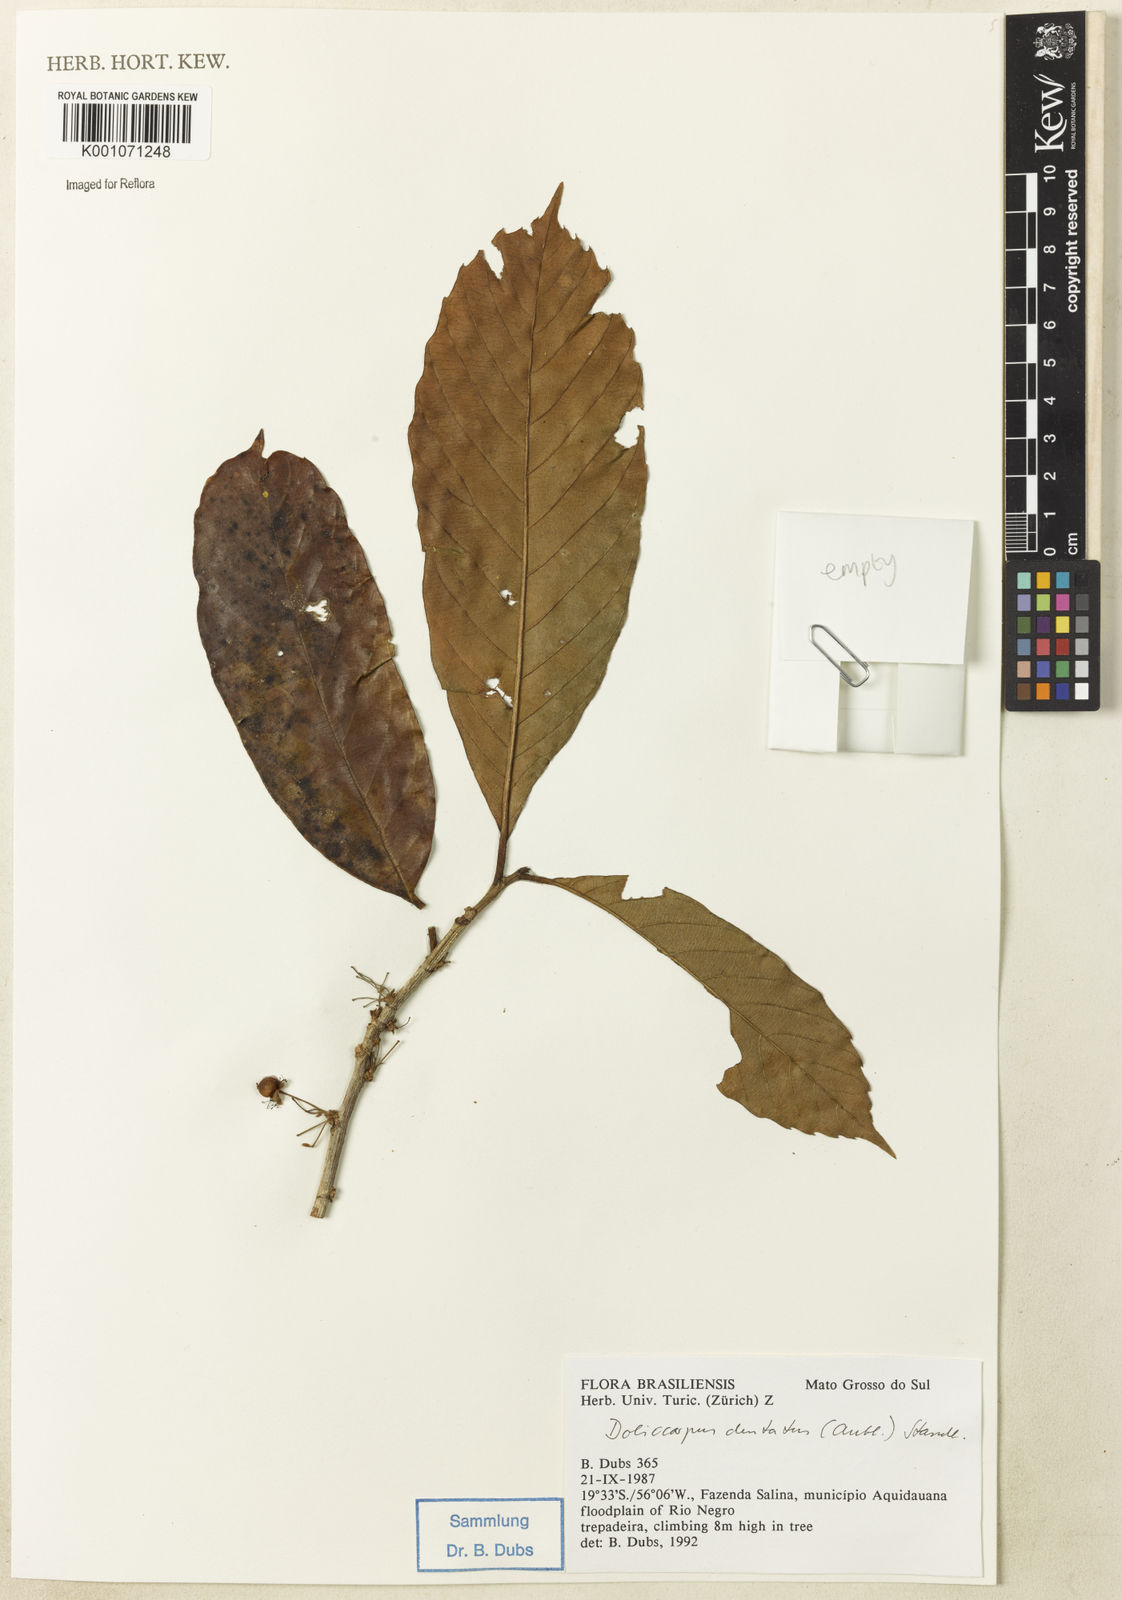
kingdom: Plantae
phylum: Tracheophyta
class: Magnoliopsida
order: Dilleniales
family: Dilleniaceae
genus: Doliocarpus
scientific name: Doliocarpus dentatus
